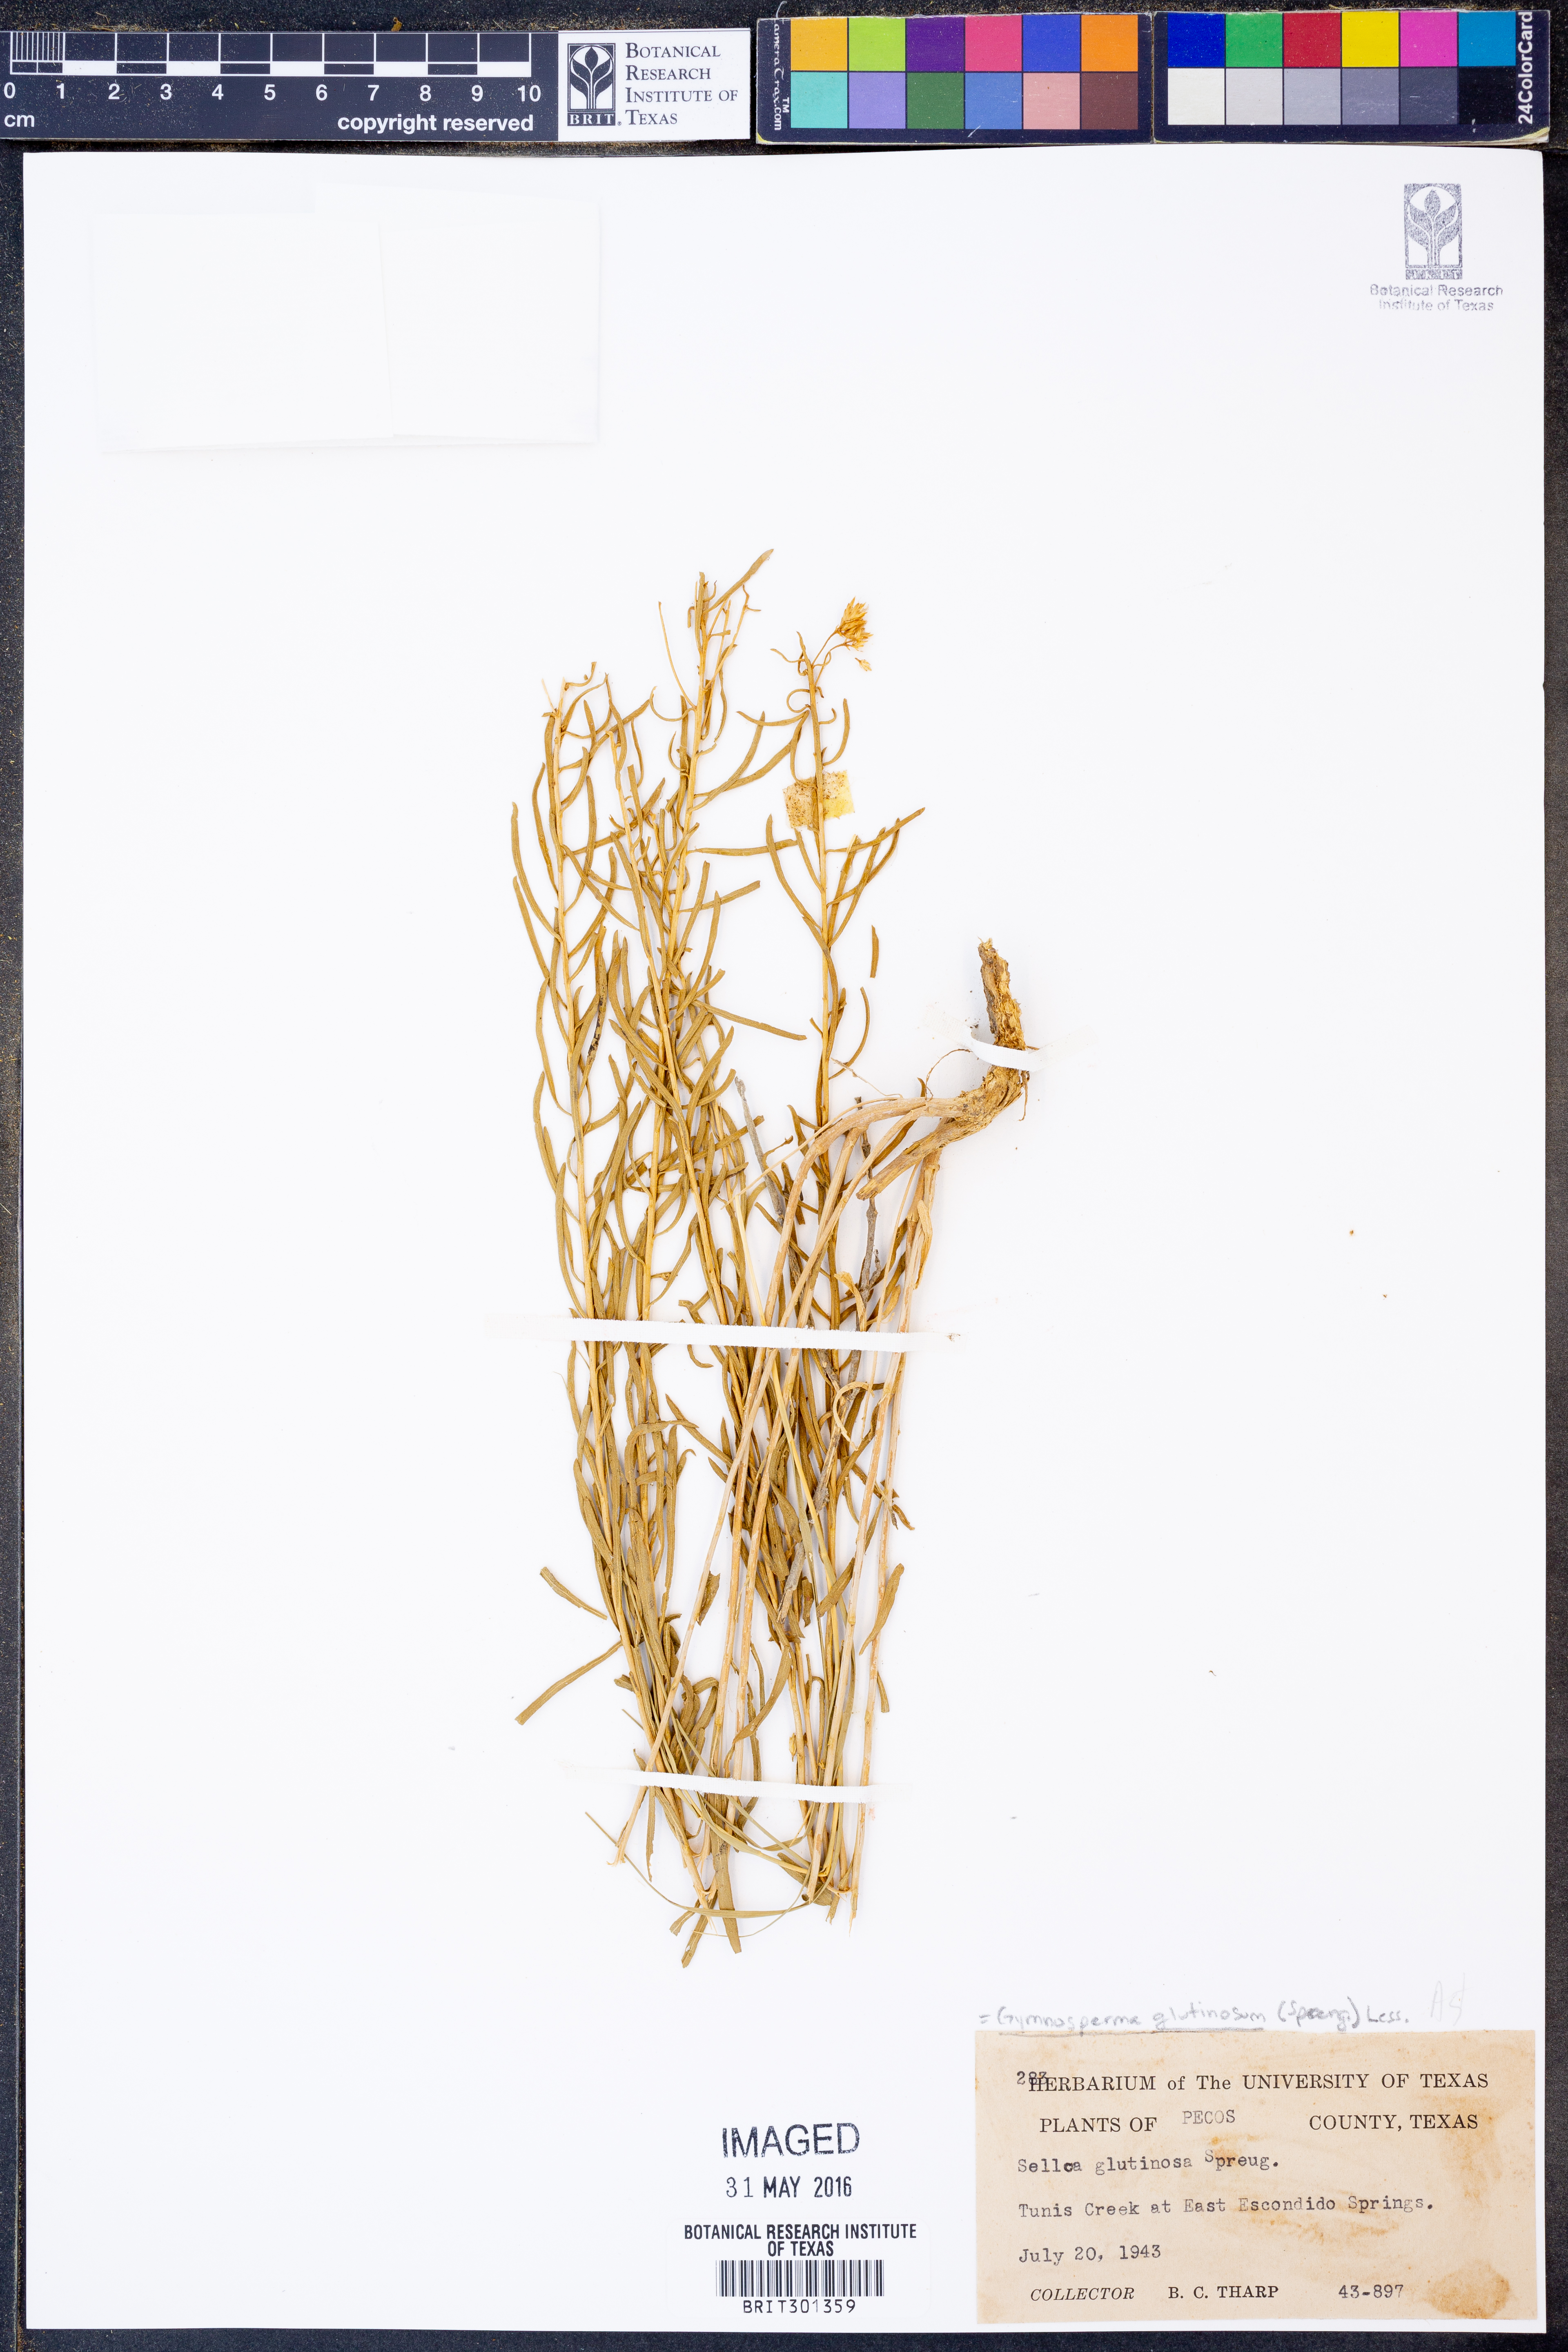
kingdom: Plantae
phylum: Tracheophyta
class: Magnoliopsida
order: Asterales
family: Asteraceae
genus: Gymnosperma
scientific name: Gymnosperma glutinosum
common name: Gumhead
